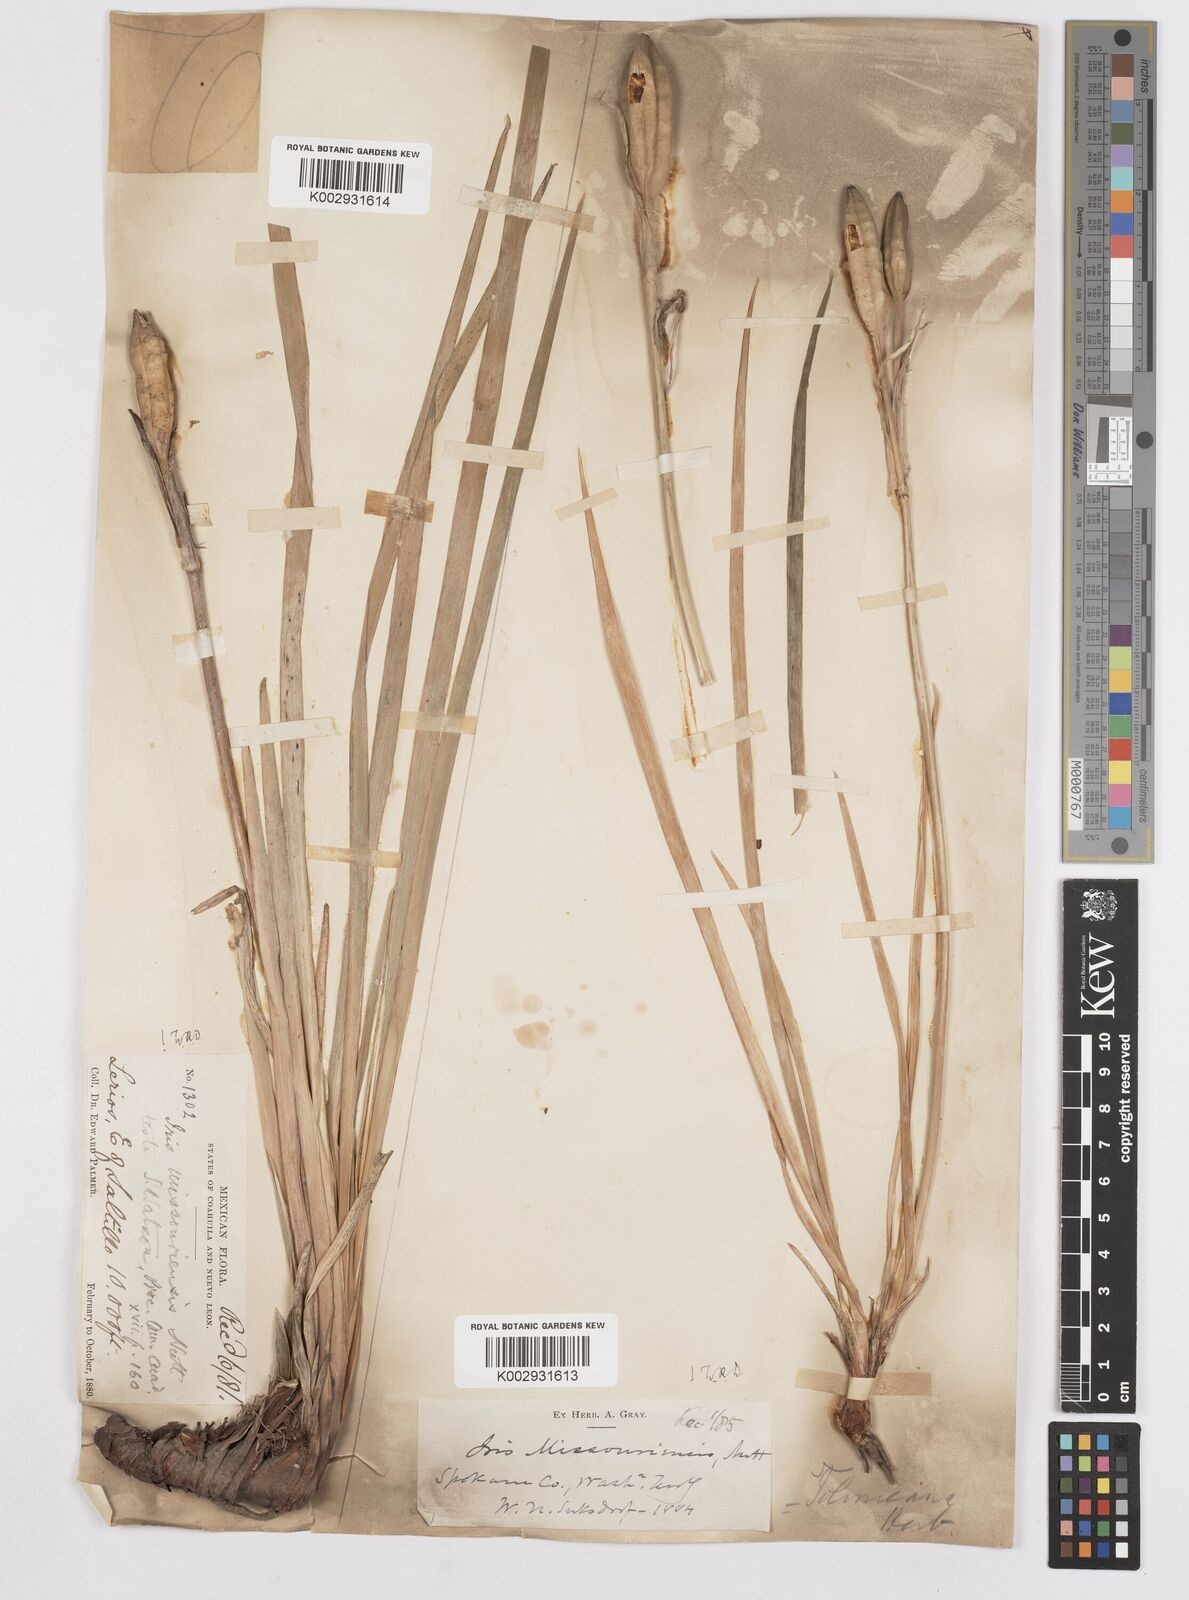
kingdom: Plantae
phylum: Tracheophyta
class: Liliopsida
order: Asparagales
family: Iridaceae
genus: Iris
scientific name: Iris missouriensis
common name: Rocky mountain iris
